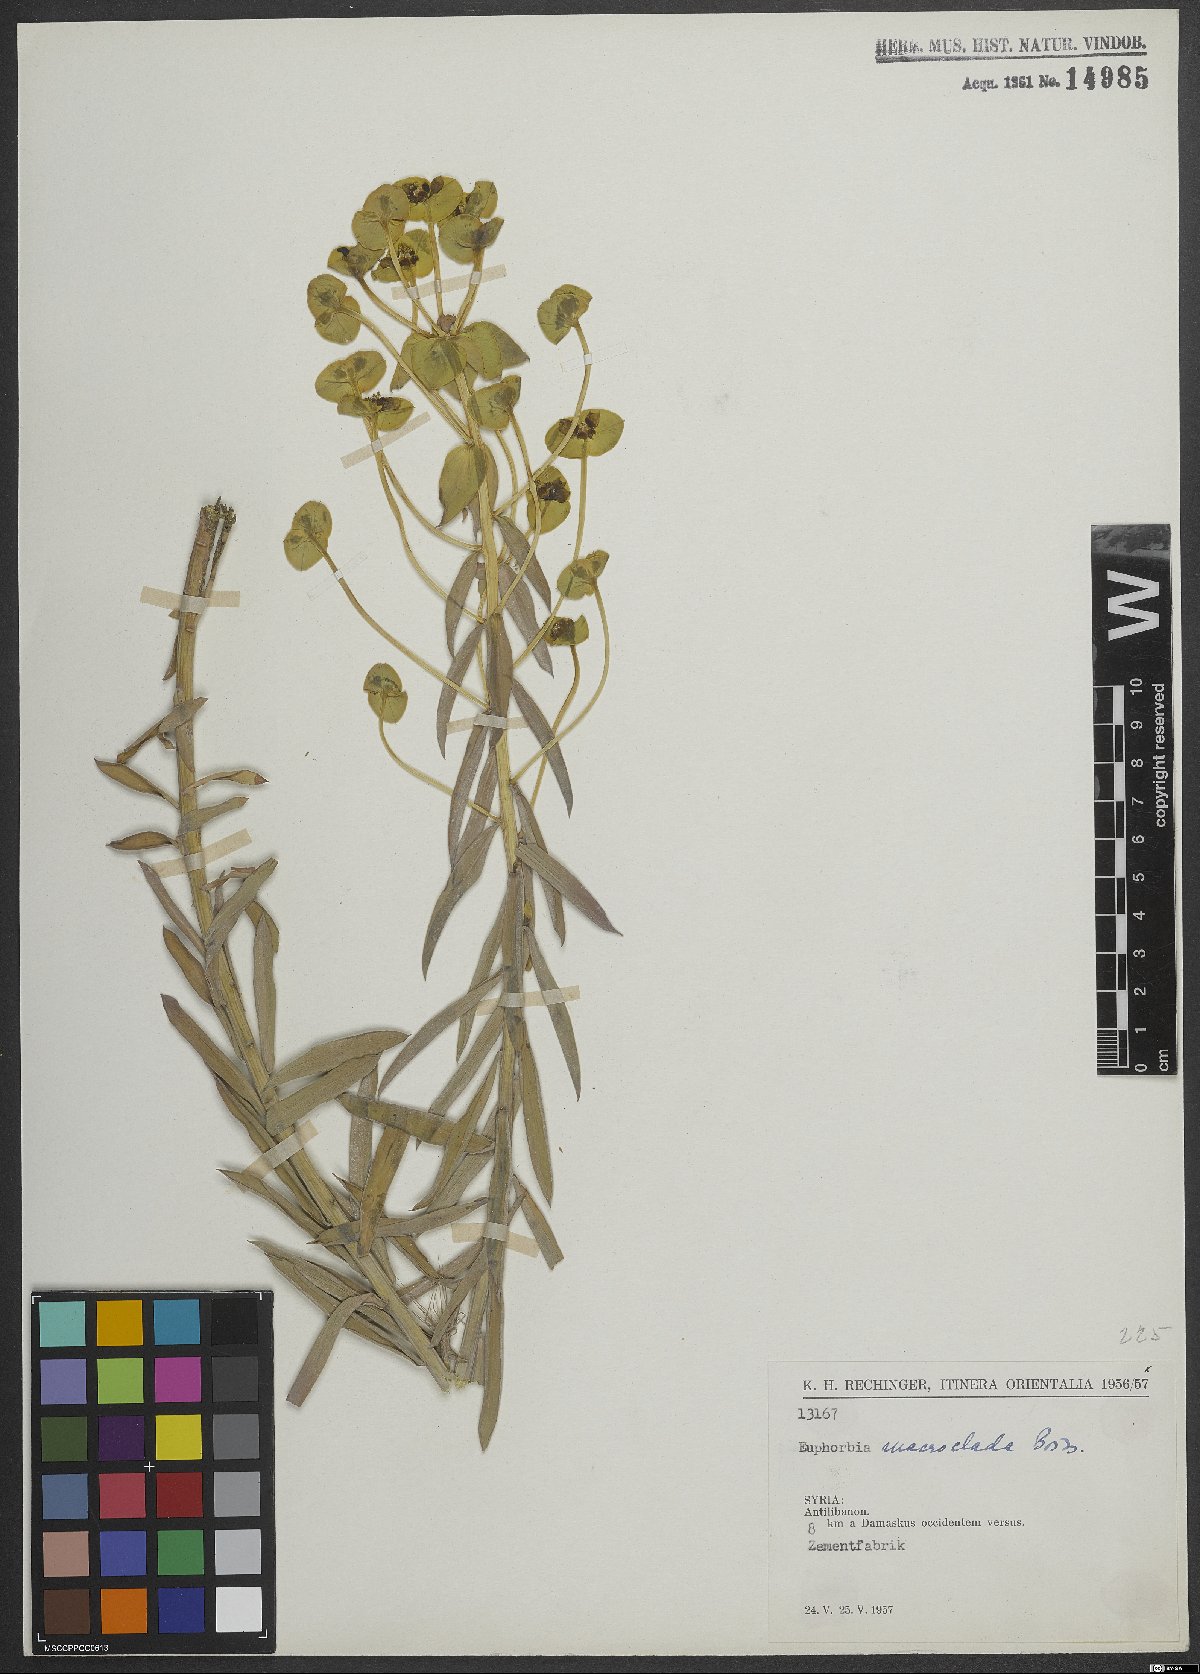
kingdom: Plantae
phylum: Tracheophyta
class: Magnoliopsida
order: Malpighiales
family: Euphorbiaceae
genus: Euphorbia
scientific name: Euphorbia macroclada
